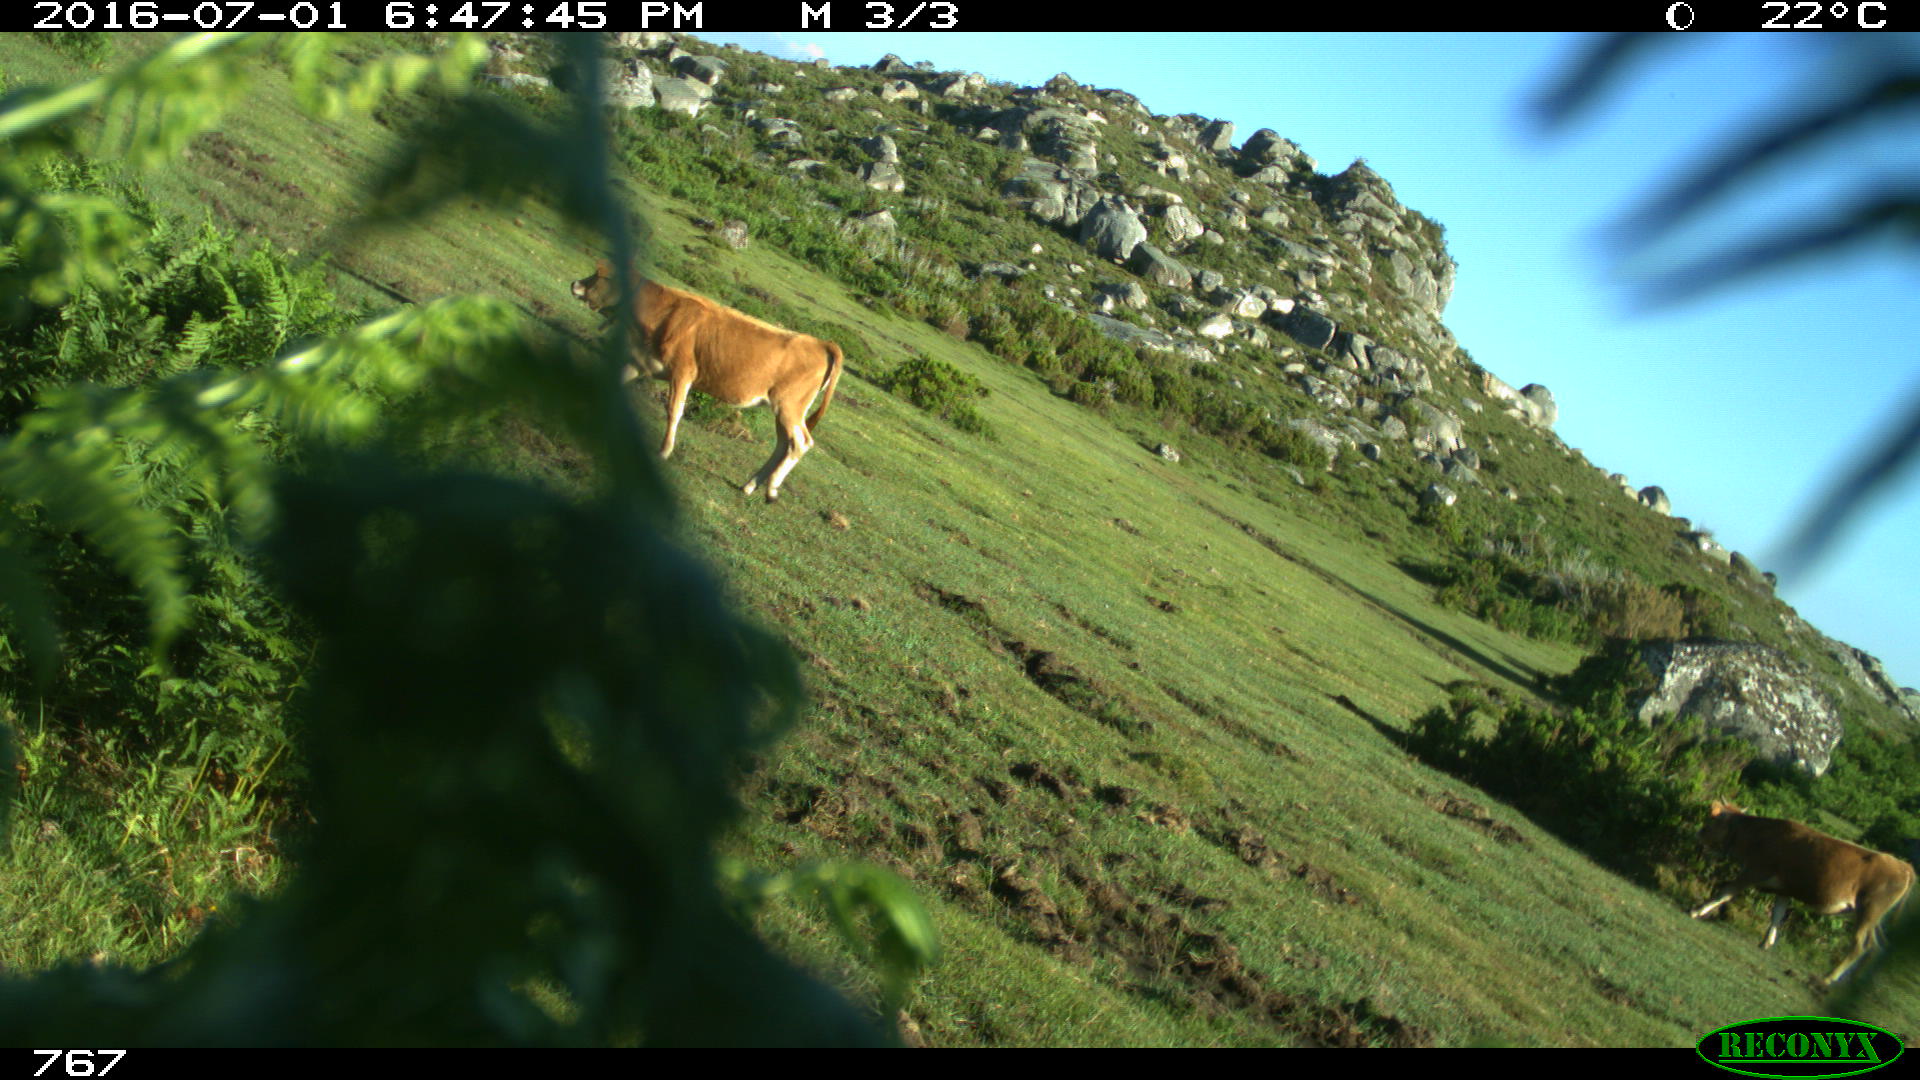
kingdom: Animalia
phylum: Chordata
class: Mammalia
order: Artiodactyla
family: Bovidae
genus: Bos
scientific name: Bos taurus
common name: Domesticated cattle
